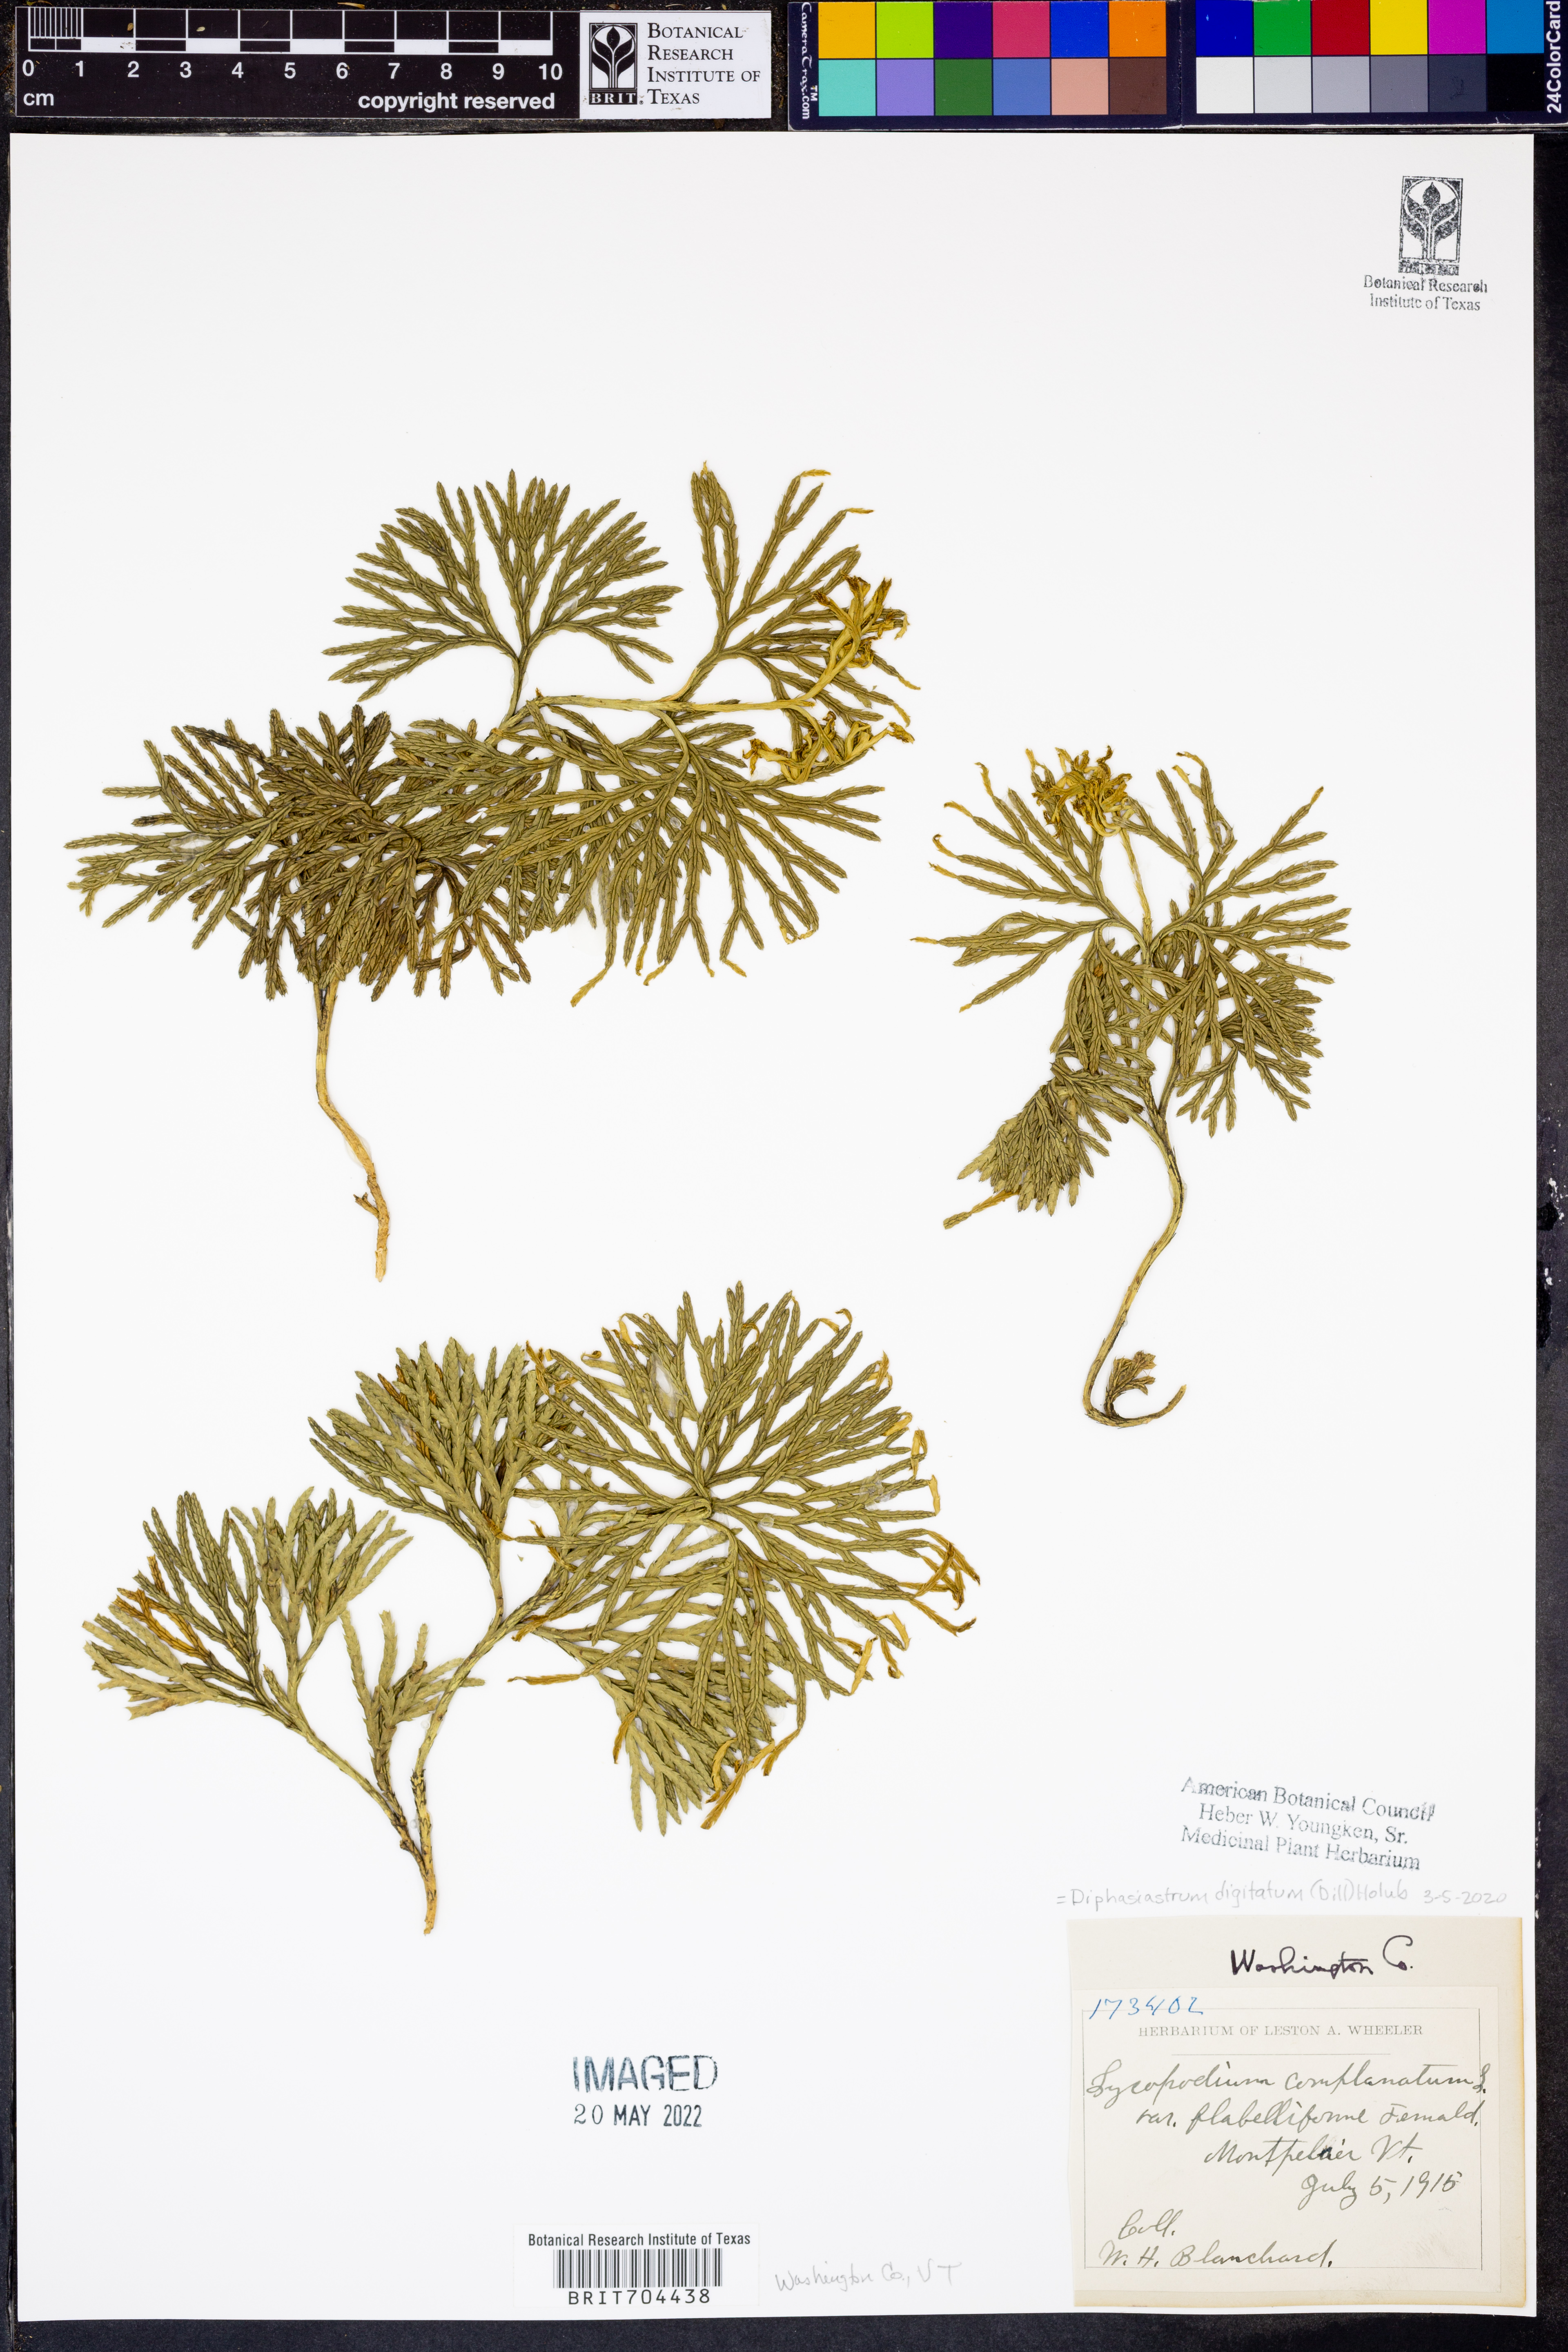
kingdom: Plantae
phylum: Tracheophyta
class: Lycopodiopsida
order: Lycopodiales
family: Lycopodiaceae
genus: Diphasiastrum
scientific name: Diphasiastrum digitatum
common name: Southern running-pine
